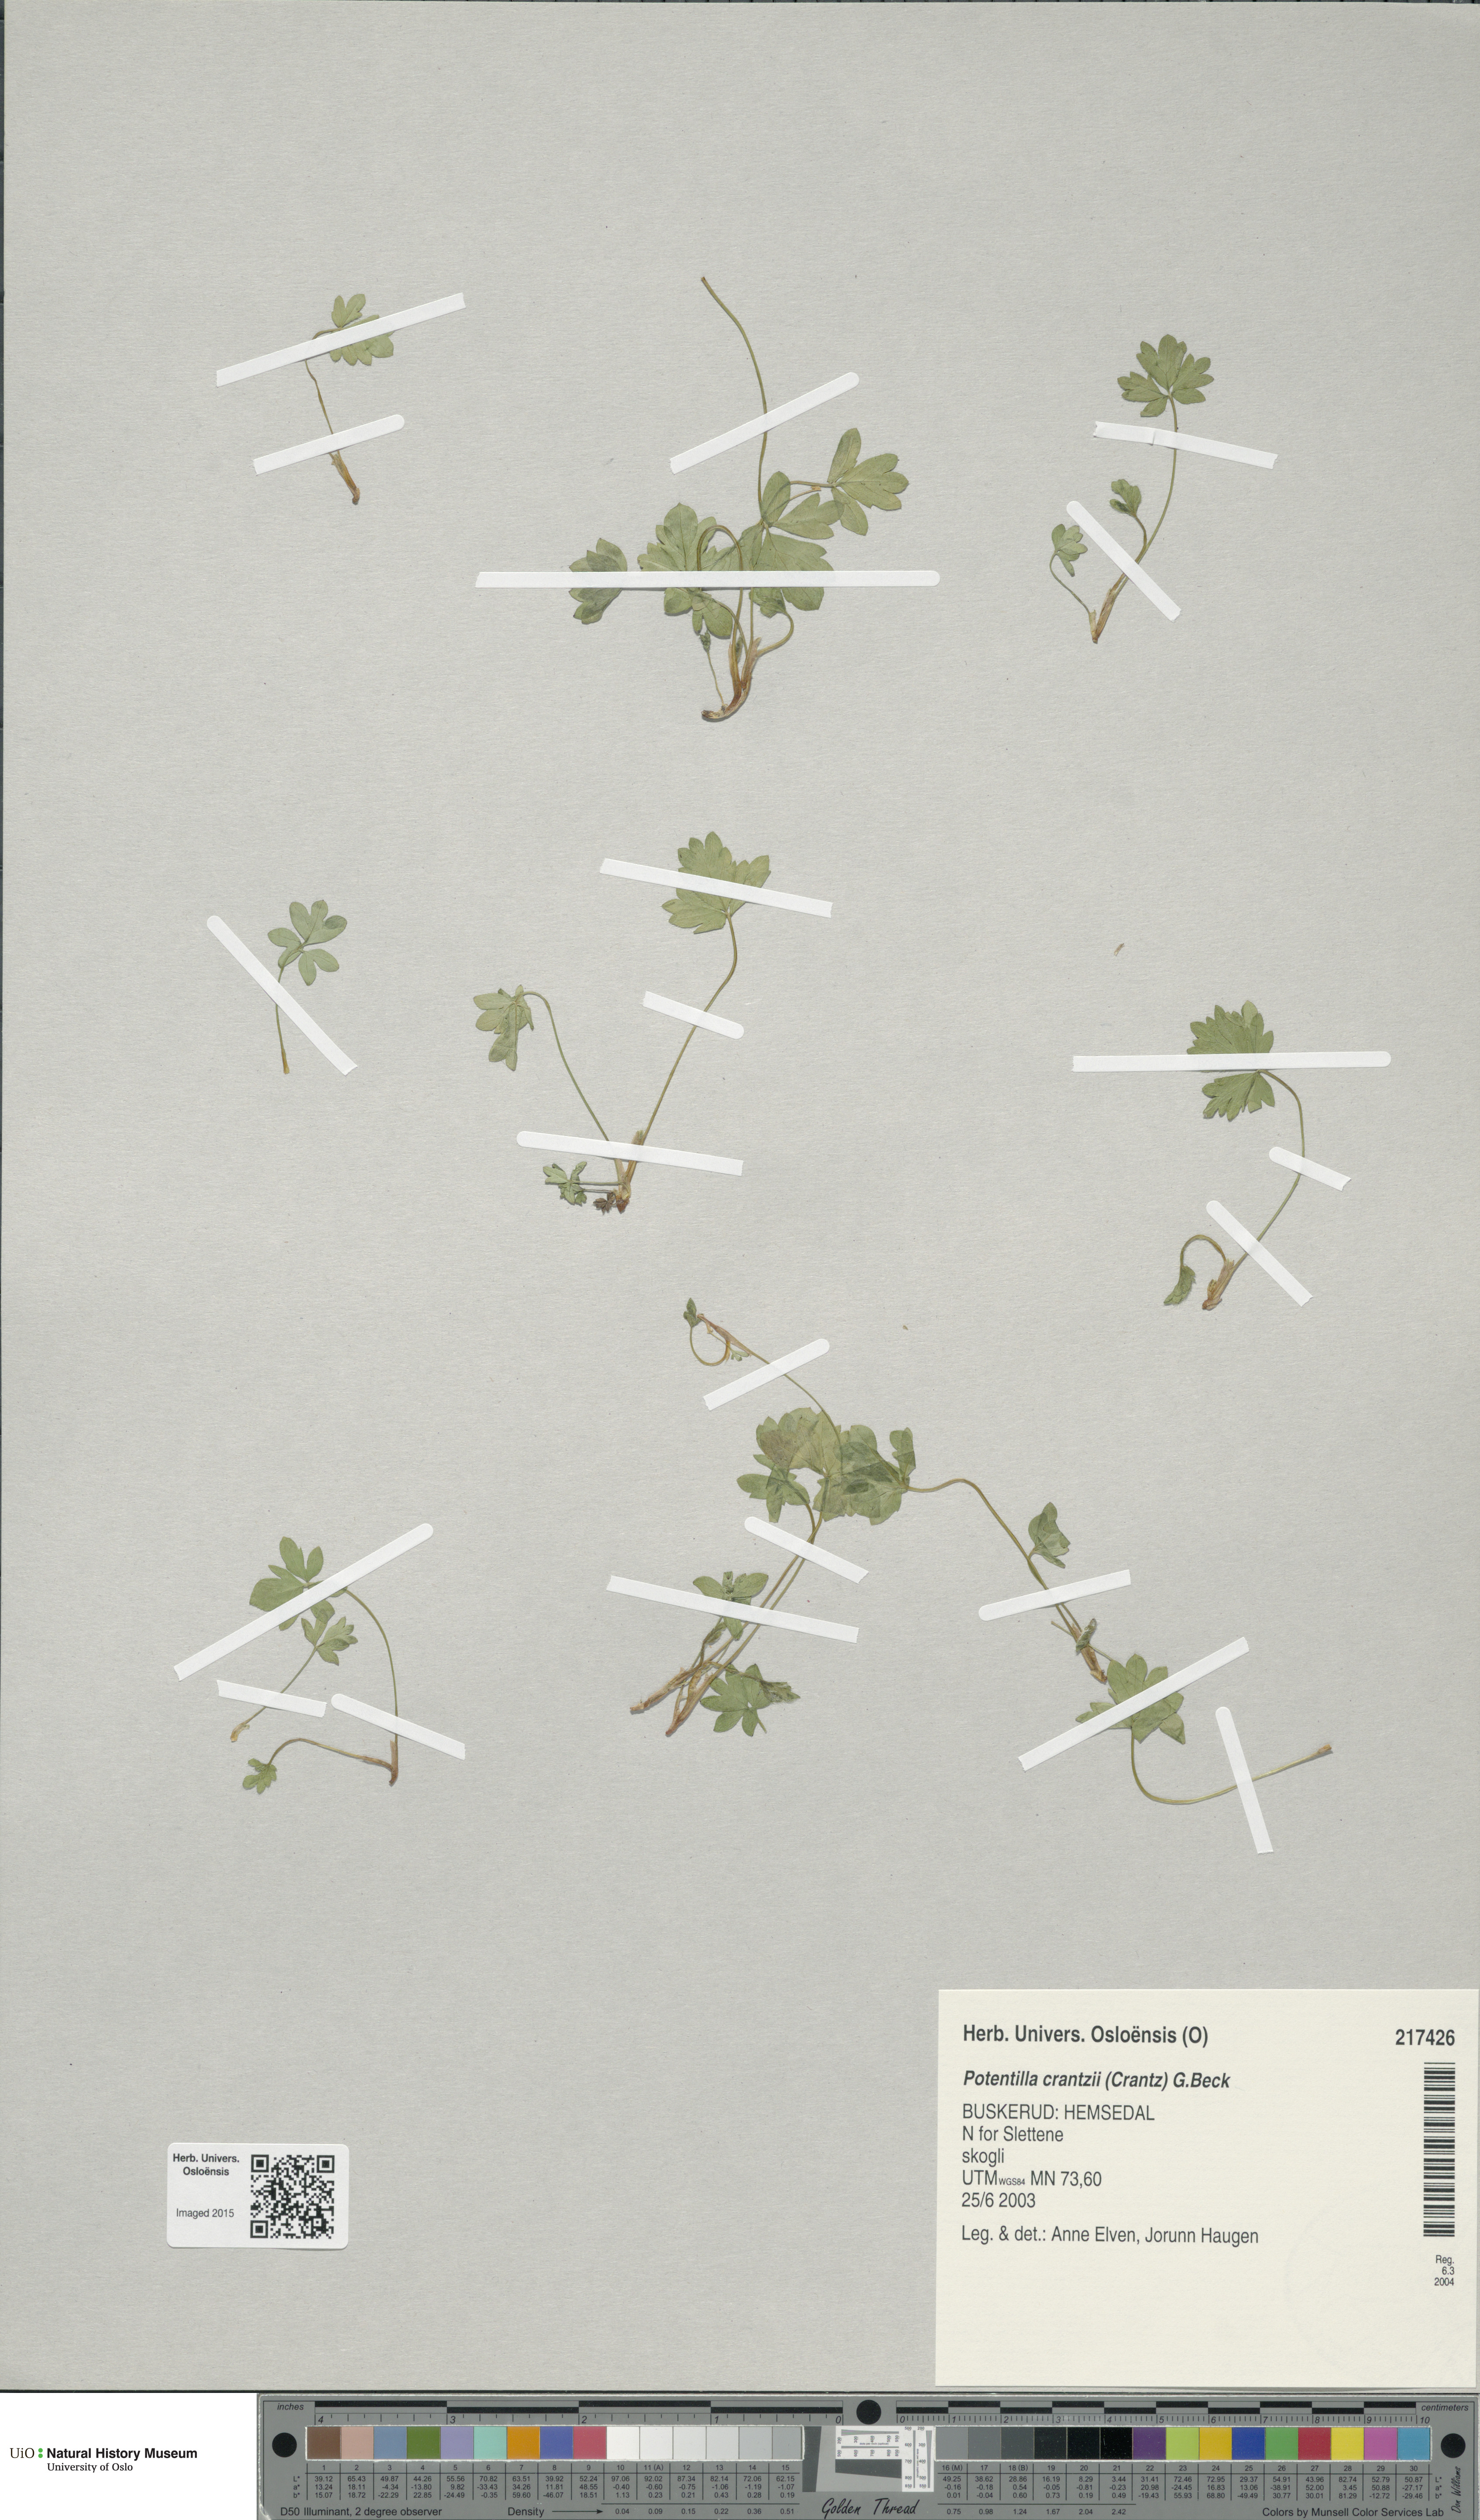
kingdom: Plantae
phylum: Tracheophyta
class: Magnoliopsida
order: Rosales
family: Rosaceae
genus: Potentilla
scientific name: Potentilla crantzii
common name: Alpine cinquefoil
